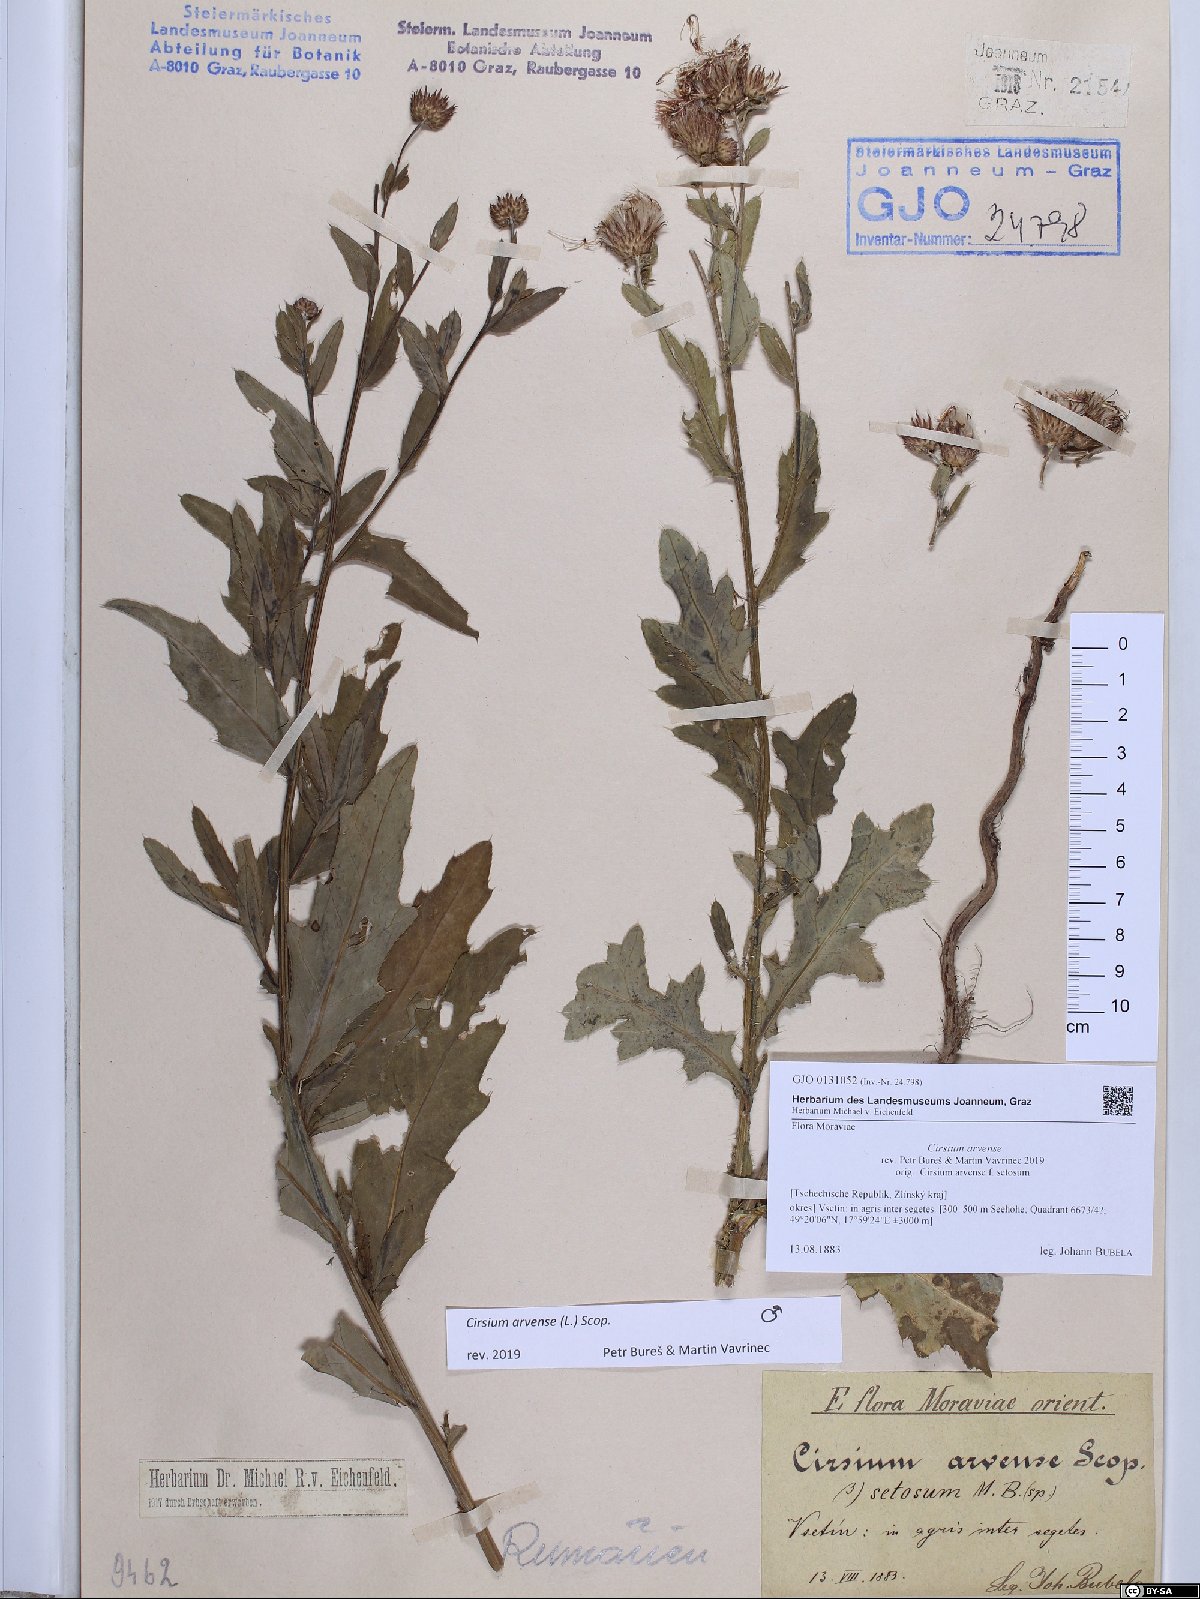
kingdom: Plantae
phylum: Tracheophyta
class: Magnoliopsida
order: Asterales
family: Asteraceae
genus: Cirsium
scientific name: Cirsium arvense
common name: Creeping thistle
